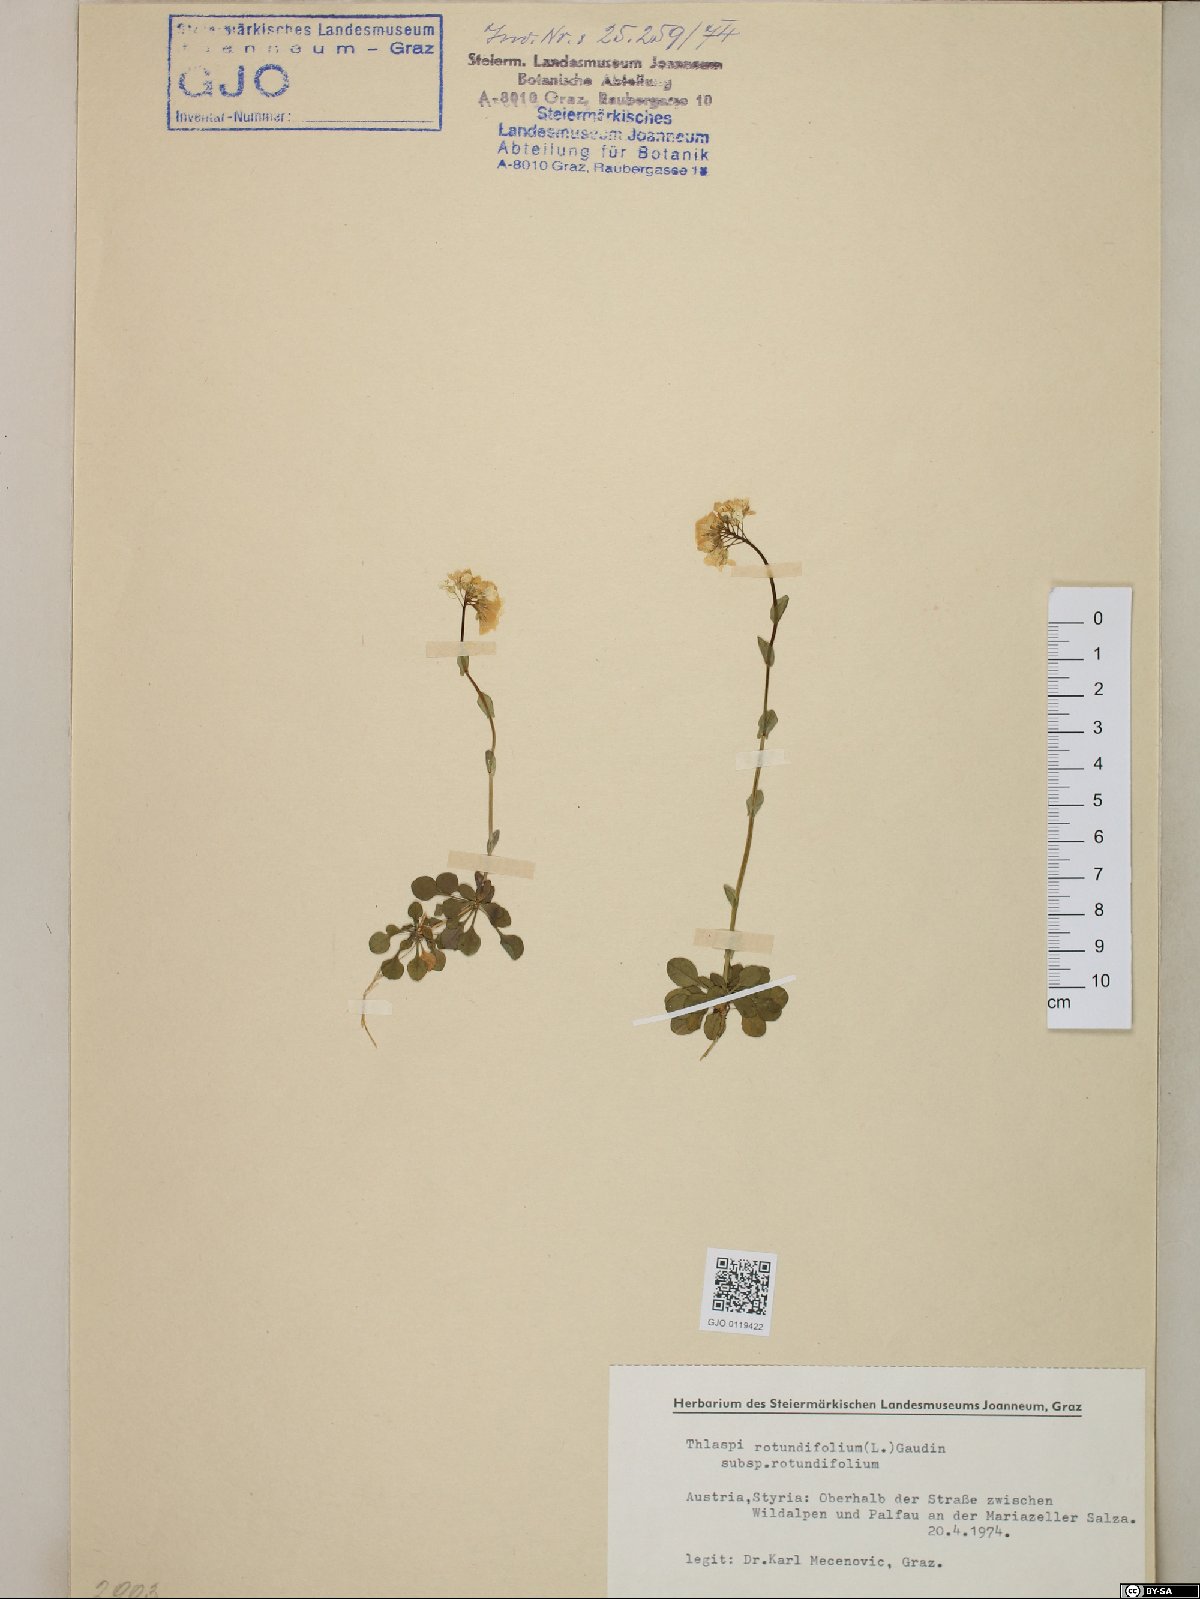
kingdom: Plantae
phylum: Tracheophyta
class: Magnoliopsida
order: Brassicales
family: Brassicaceae
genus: Noccaea
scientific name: Noccaea rotundifolia
